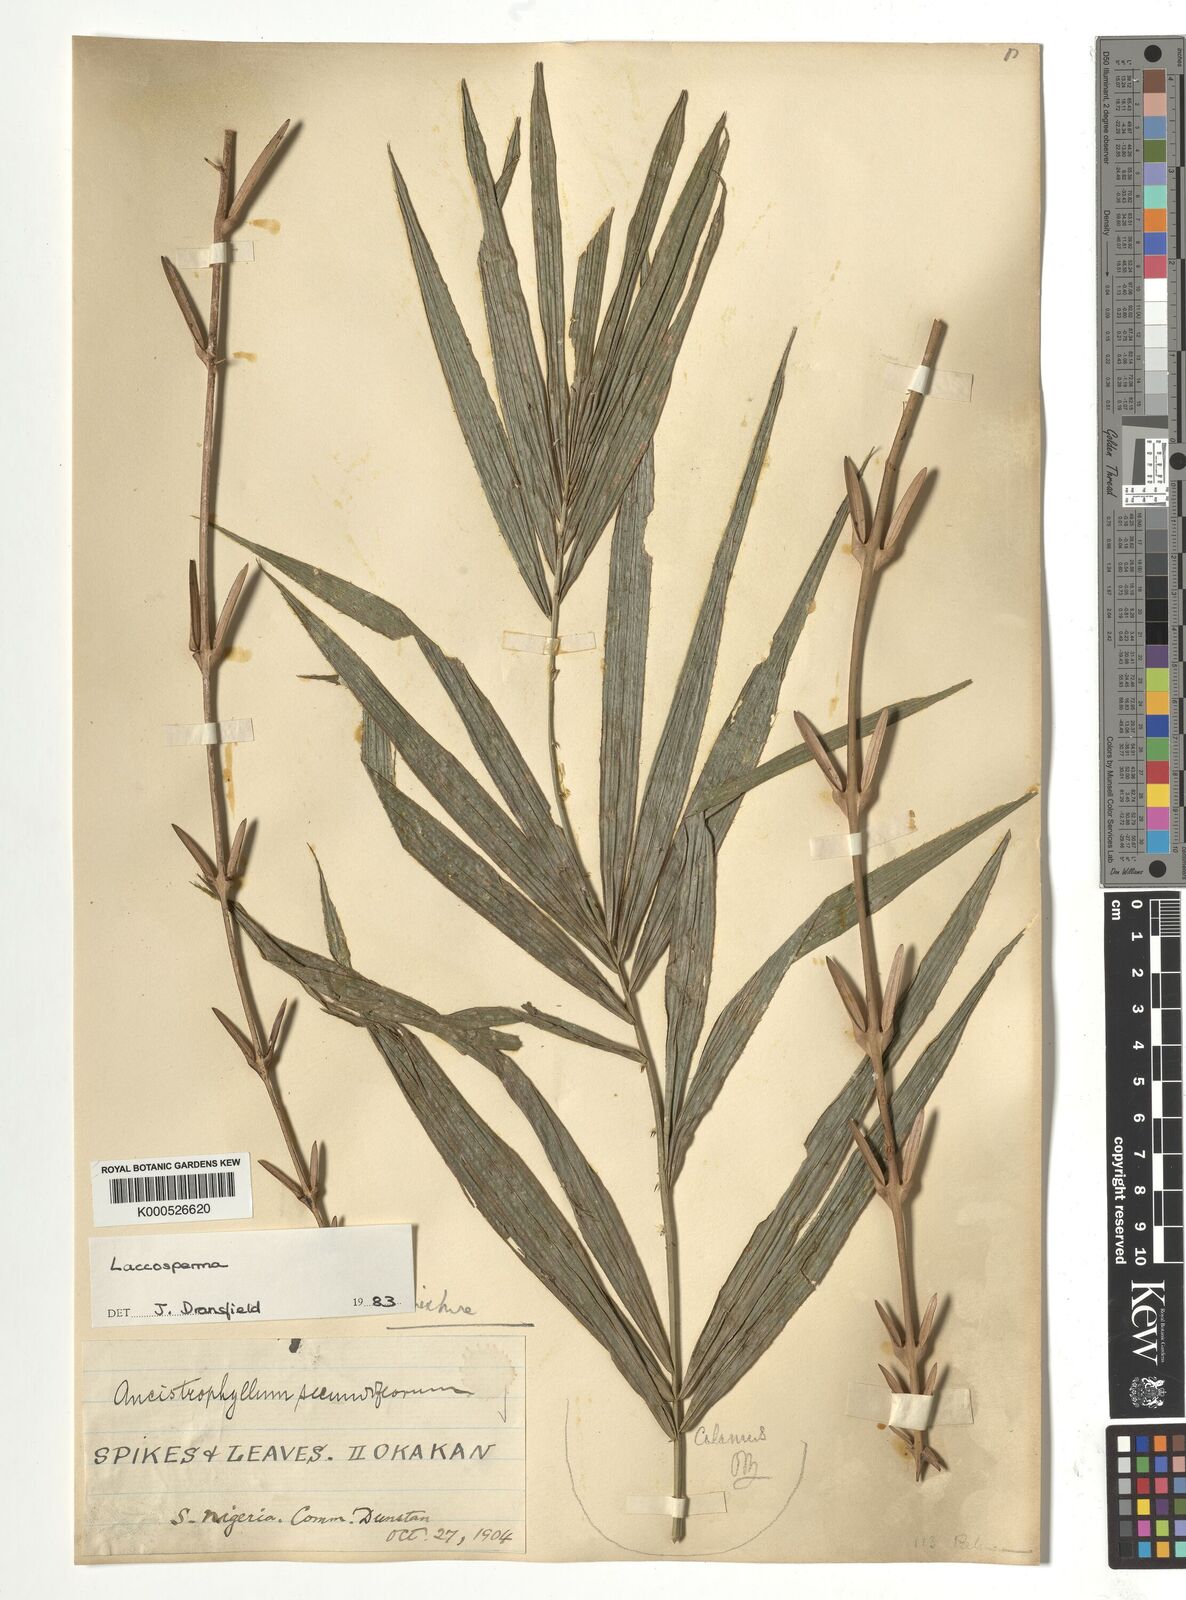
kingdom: Plantae
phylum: Tracheophyta
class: Liliopsida
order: Arecales
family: Arecaceae
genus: Laccosperma
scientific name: Laccosperma
